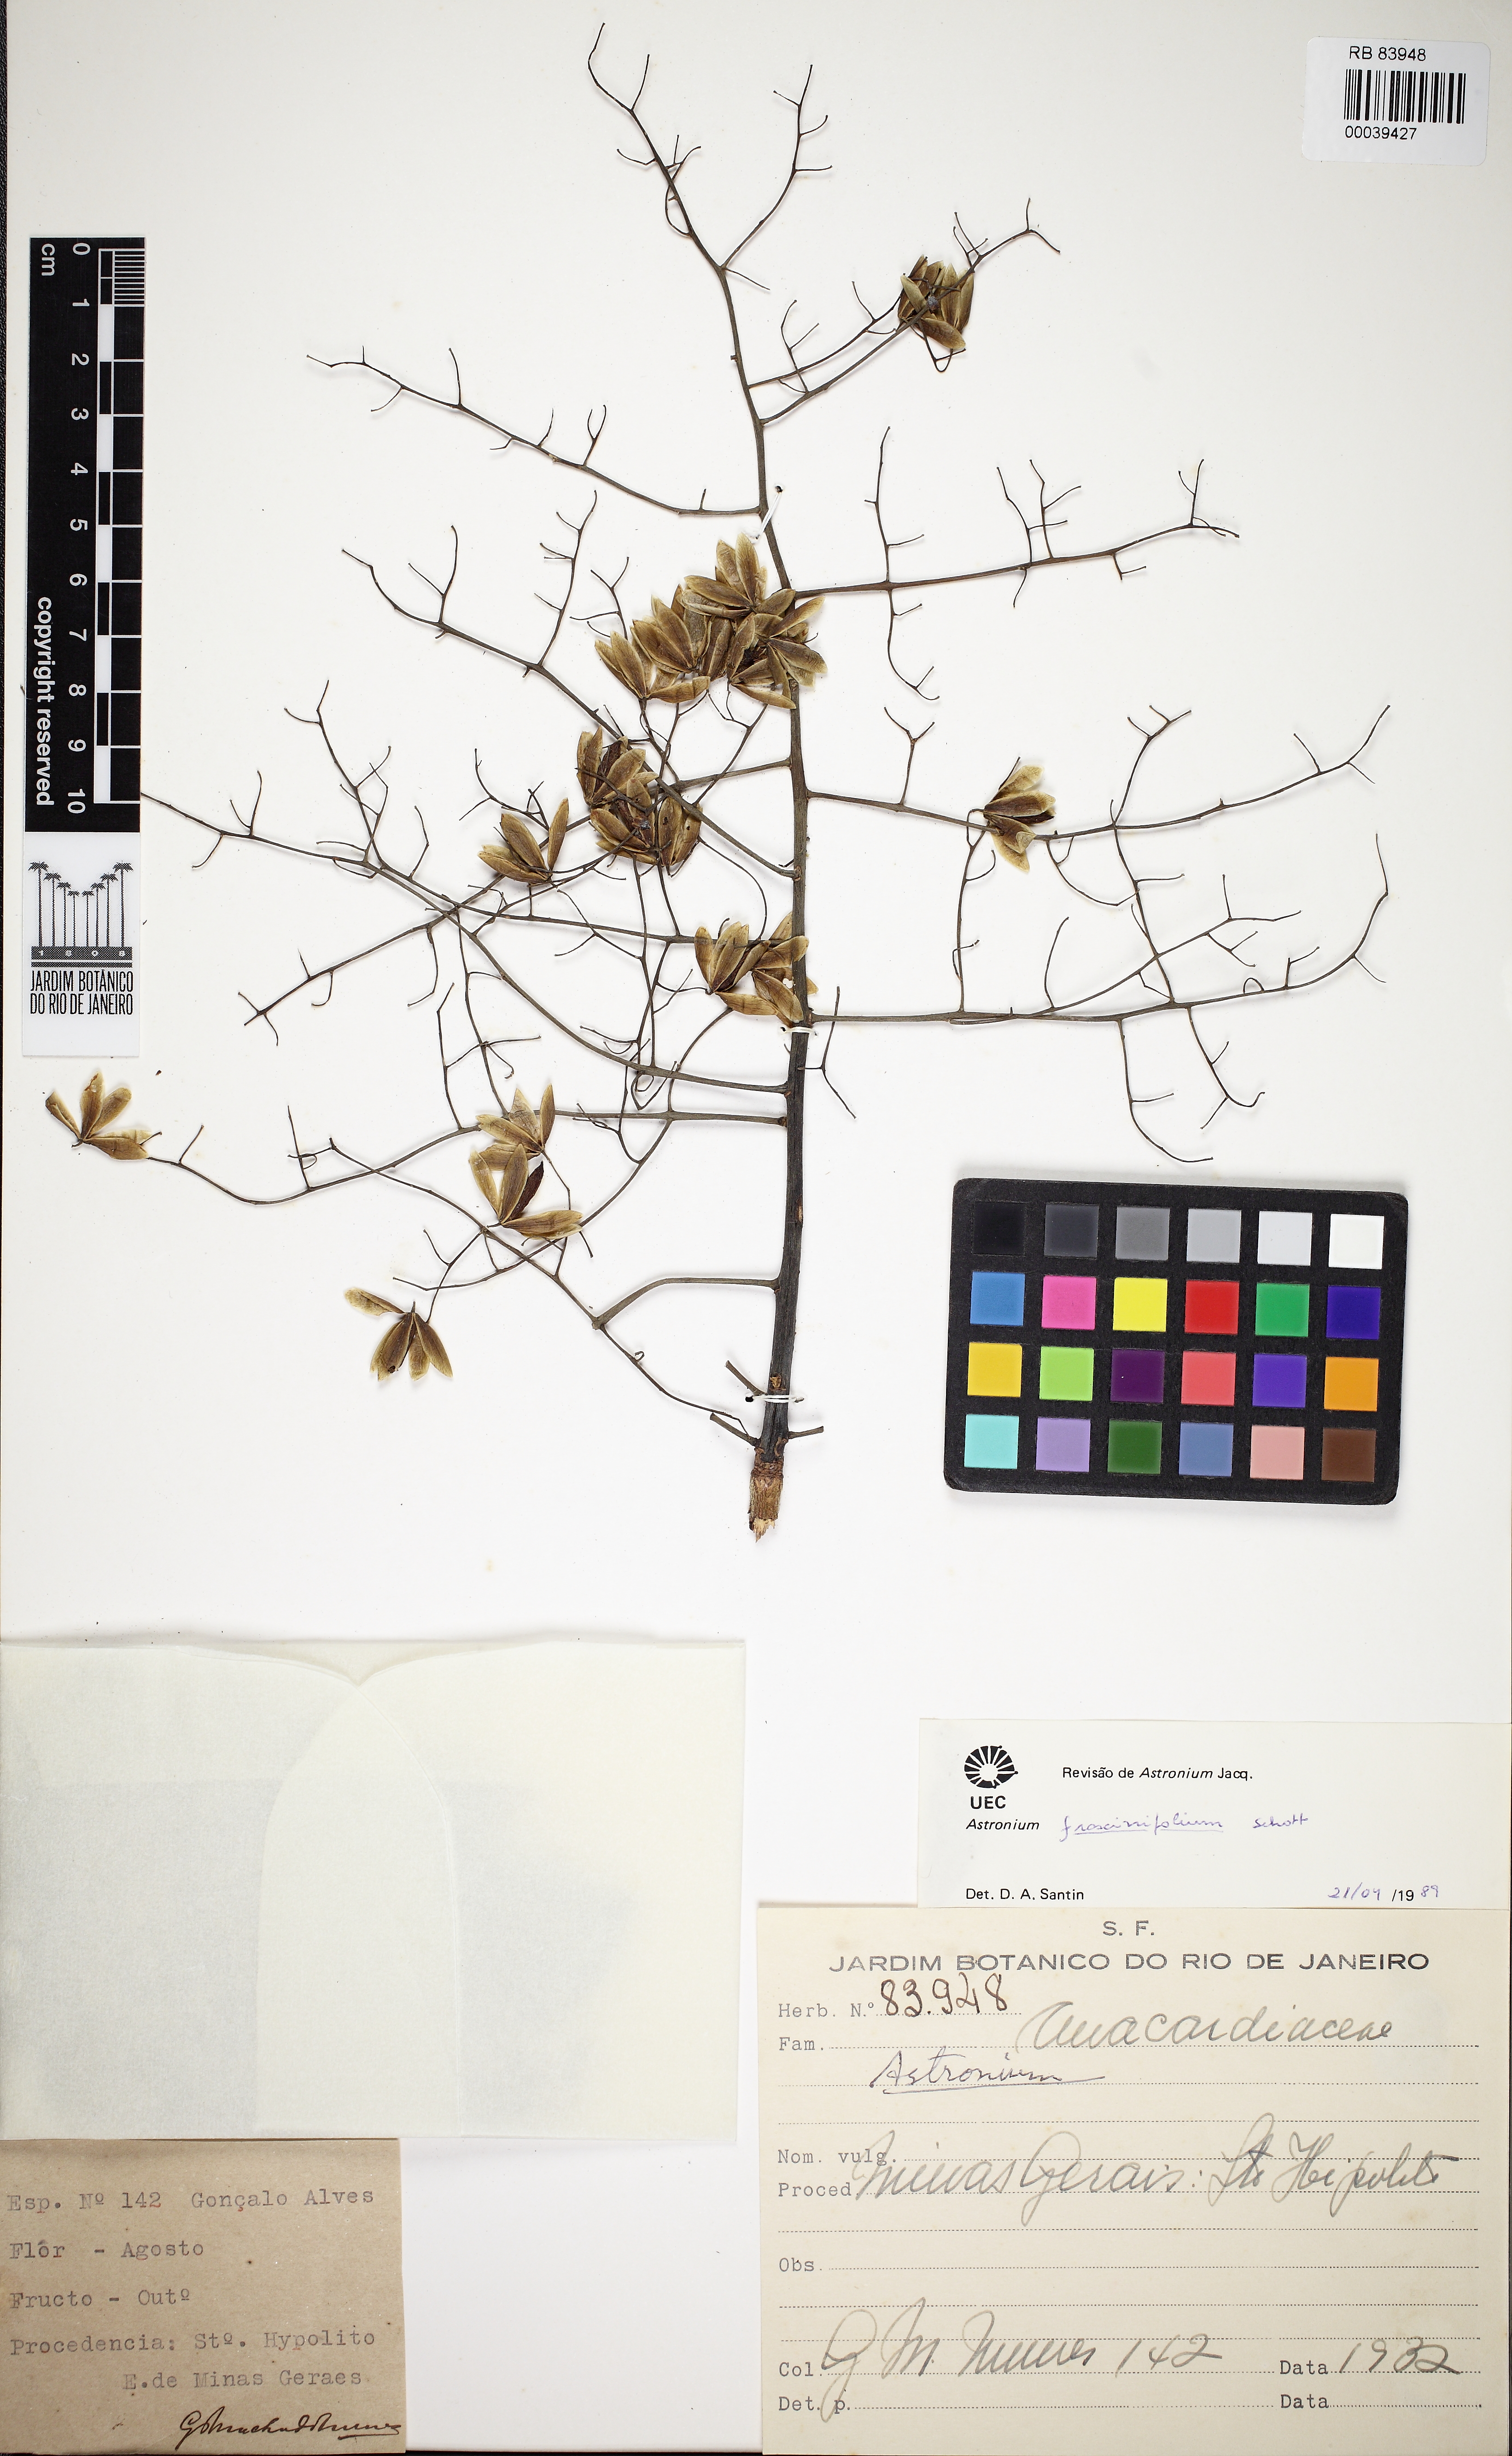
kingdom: Plantae
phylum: Tracheophyta
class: Magnoliopsida
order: Sapindales
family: Anacardiaceae
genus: Astronium
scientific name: Astronium fraxinifolium
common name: Tigerwood
